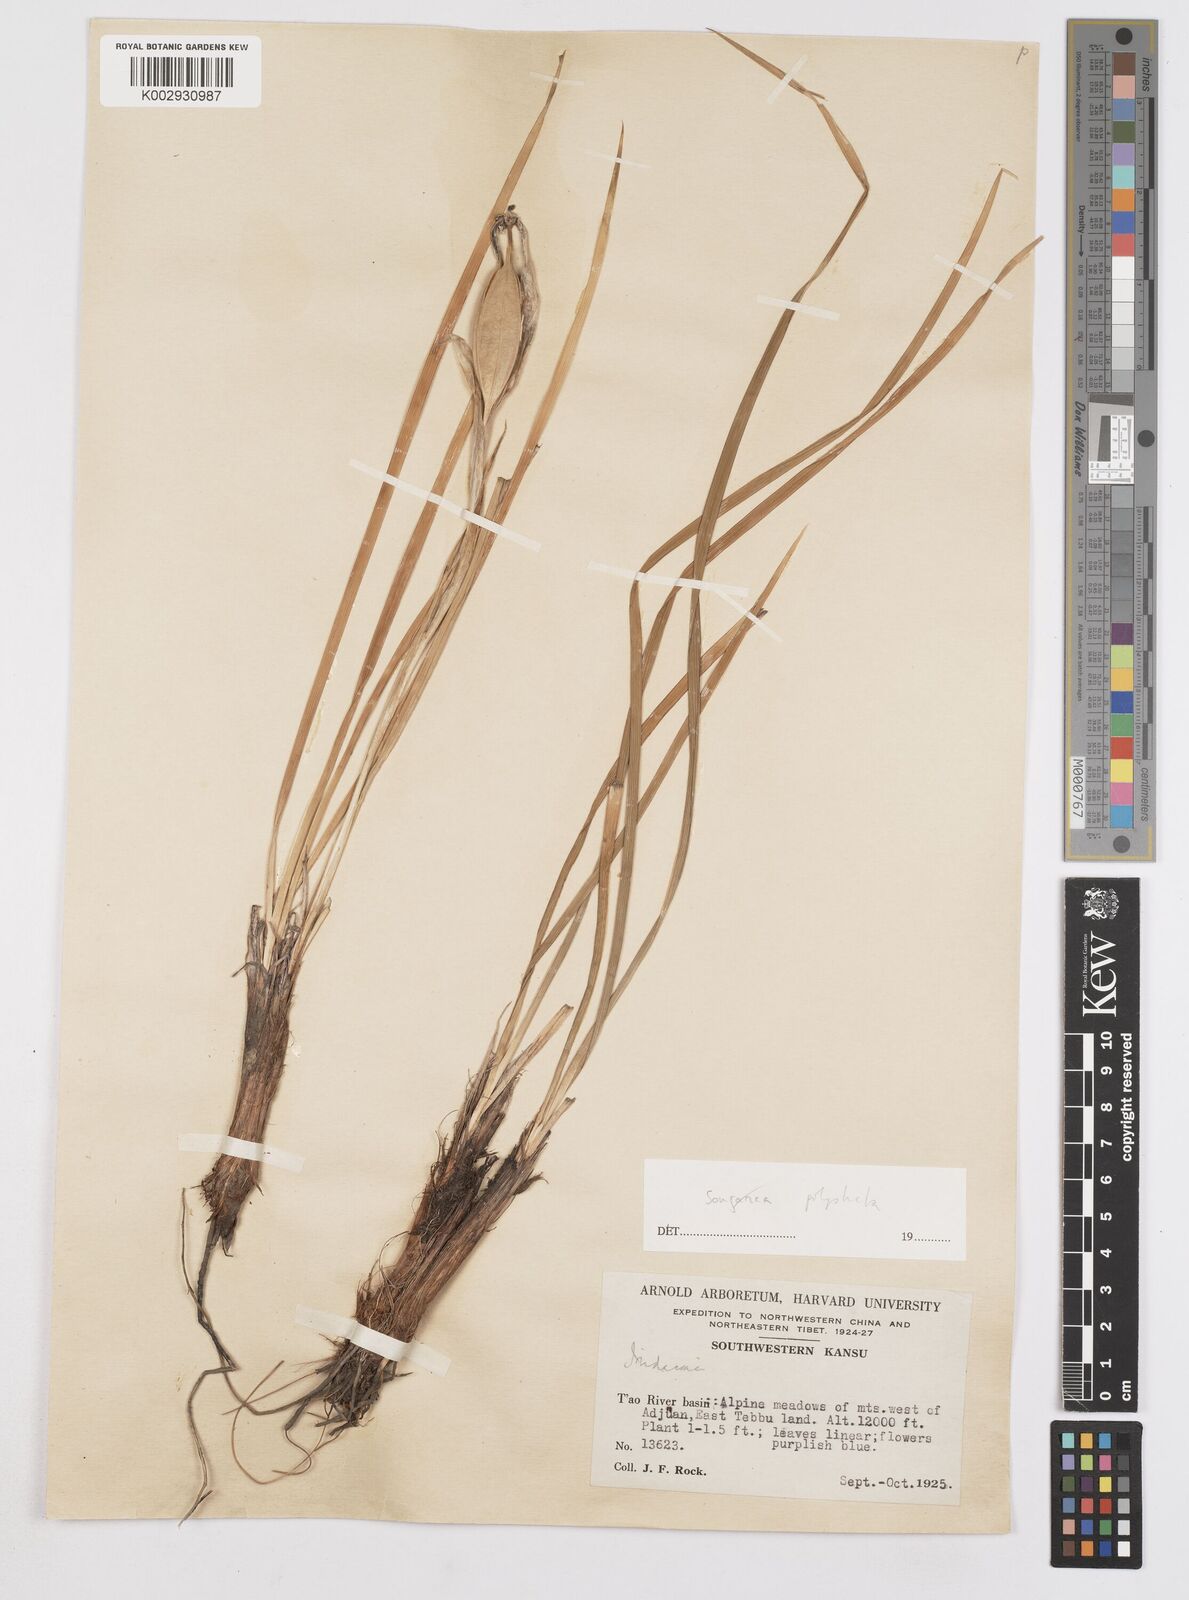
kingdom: Plantae
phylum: Tracheophyta
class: Liliopsida
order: Asparagales
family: Iridaceae
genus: Iris
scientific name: Iris farreri
